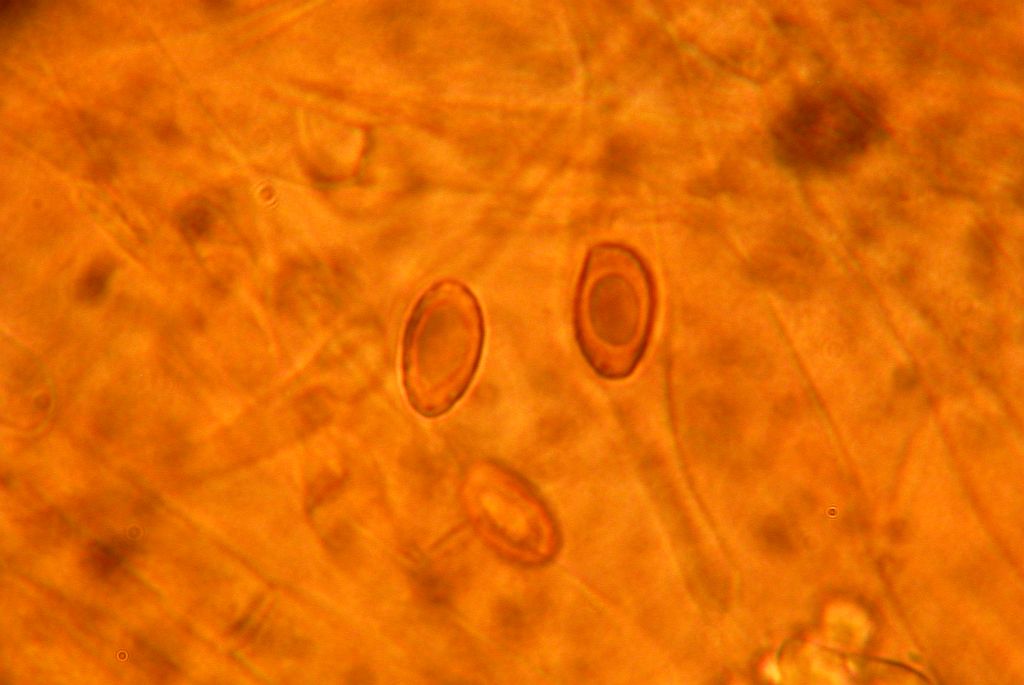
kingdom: Fungi
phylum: Basidiomycota
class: Agaricomycetes
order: Agaricales
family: Cortinariaceae
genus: Cortinarius
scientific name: Cortinarius inconspicuus
